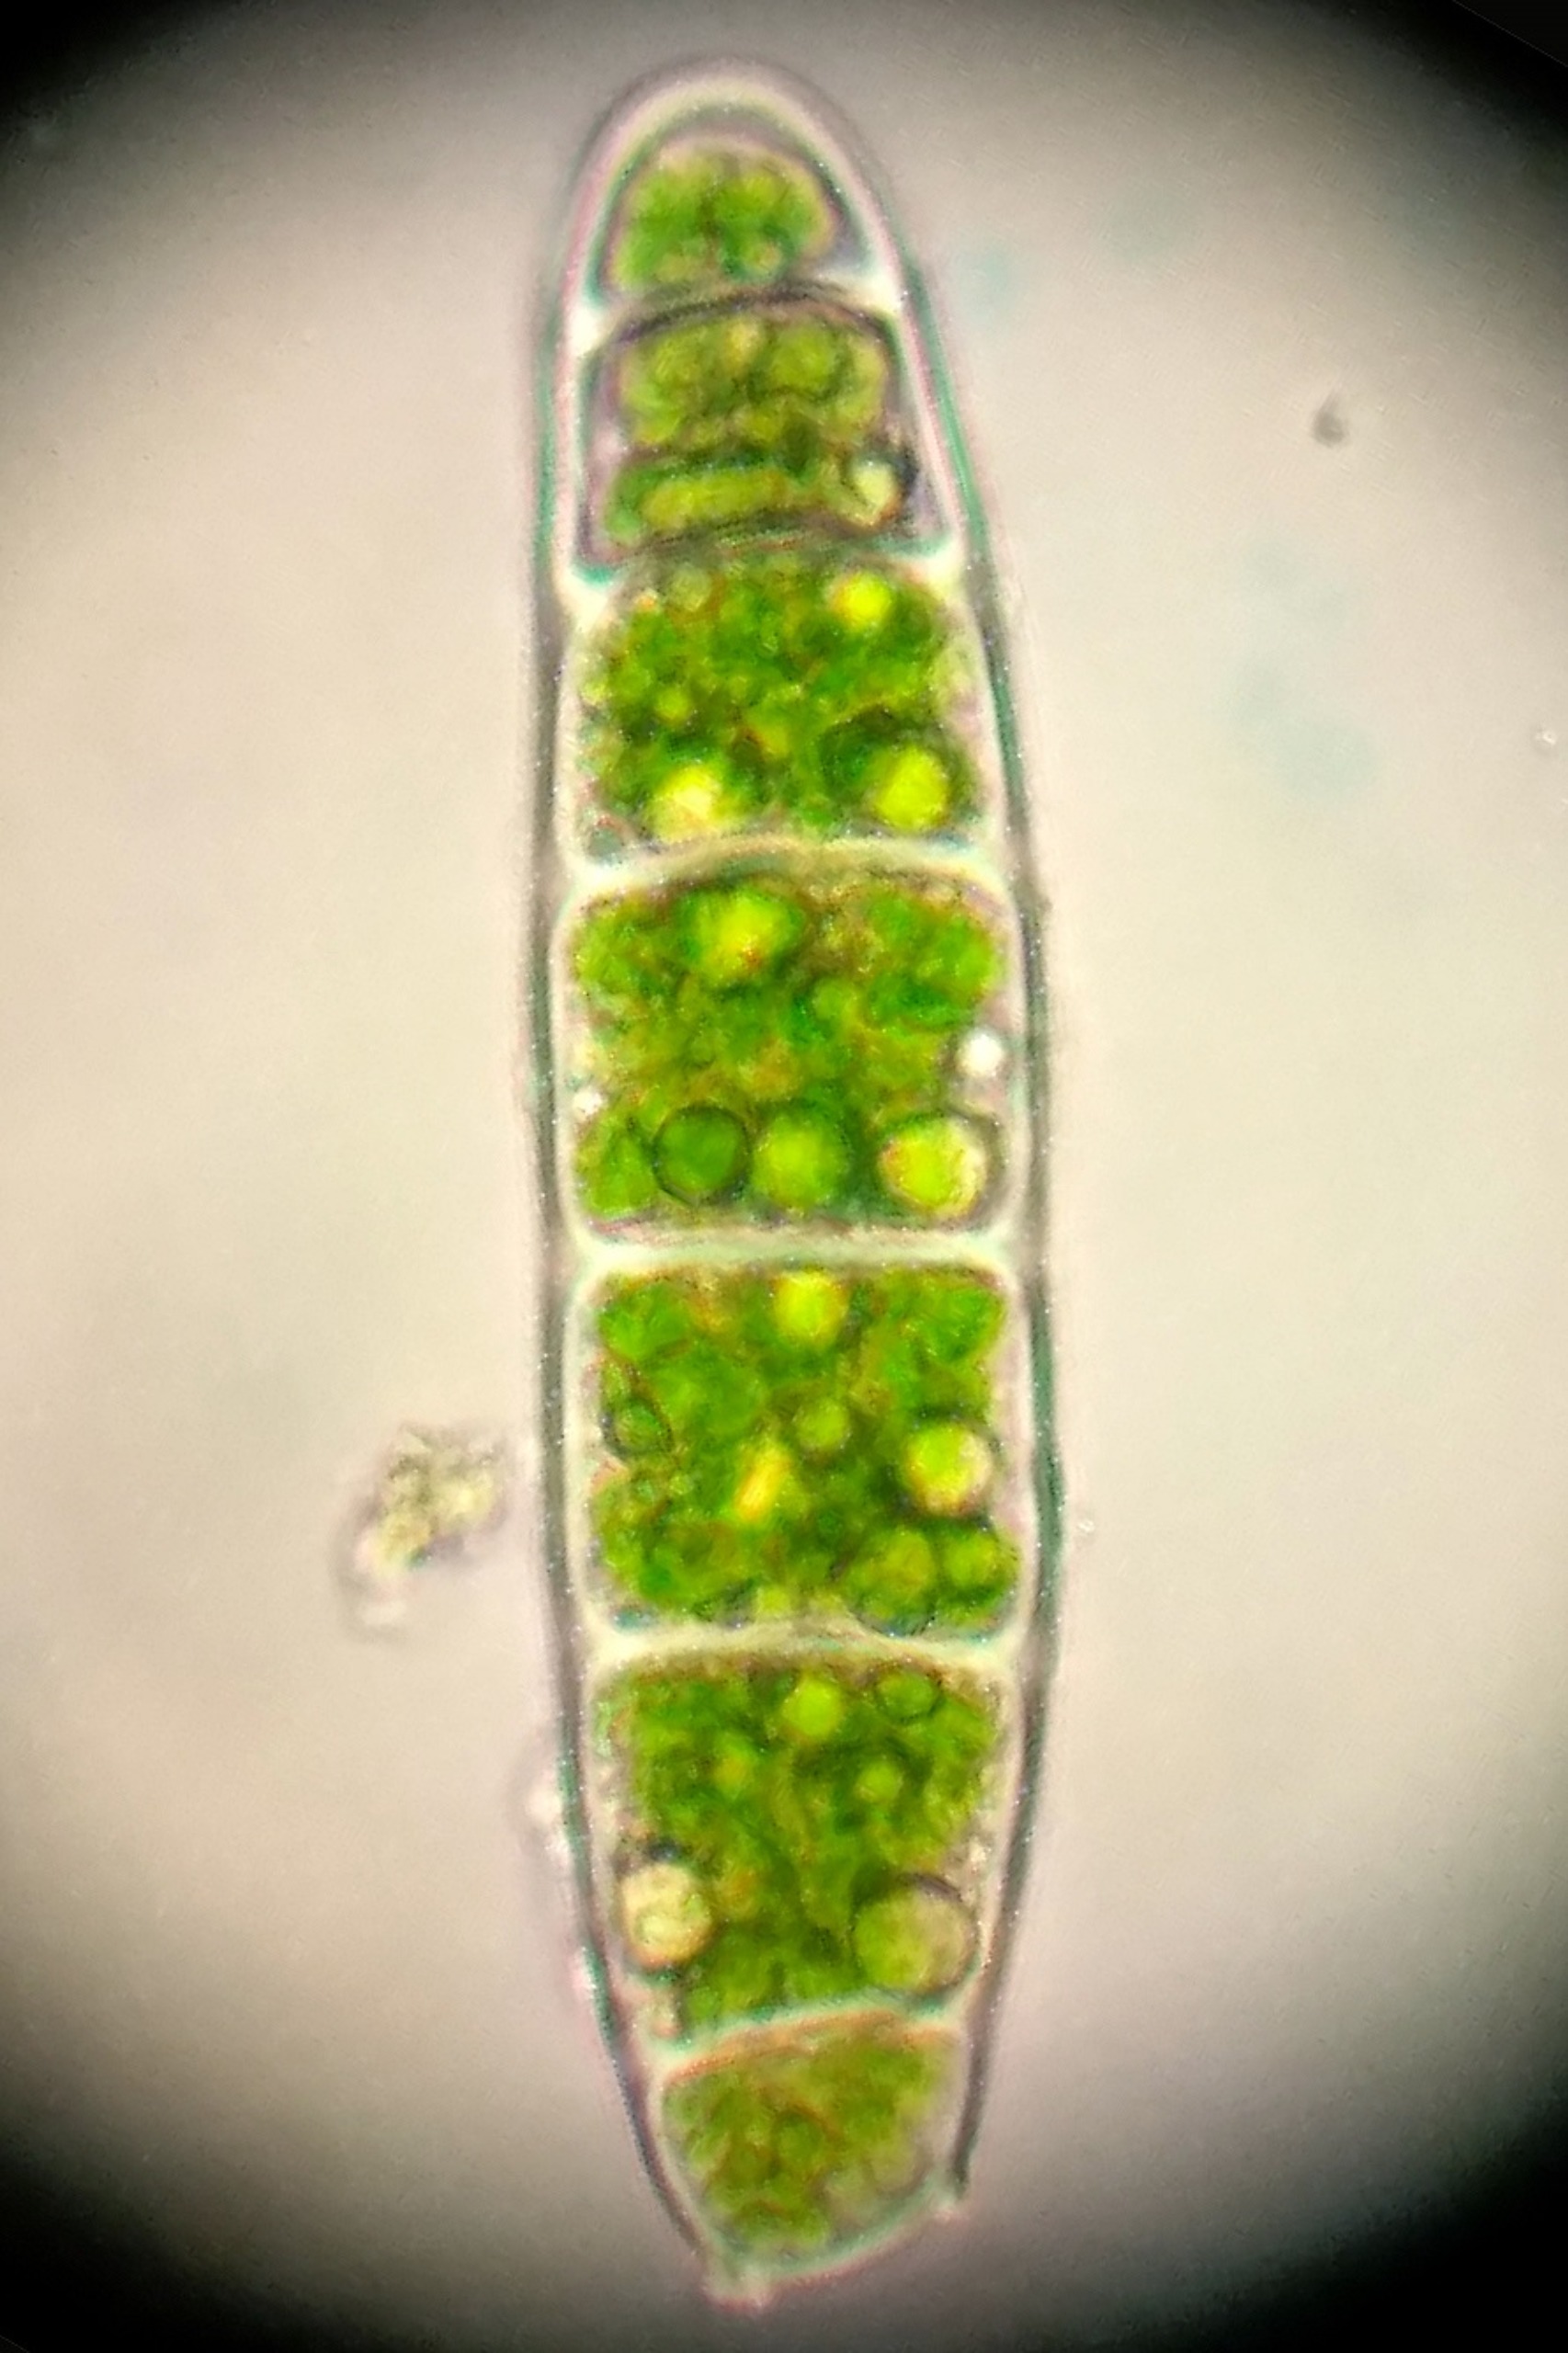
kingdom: Plantae
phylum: Bryophyta
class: Bryopsida
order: Orthotrichales
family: Orthotrichaceae
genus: Zygodon
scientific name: Zygodon conoideus
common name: Tand-køllemos
